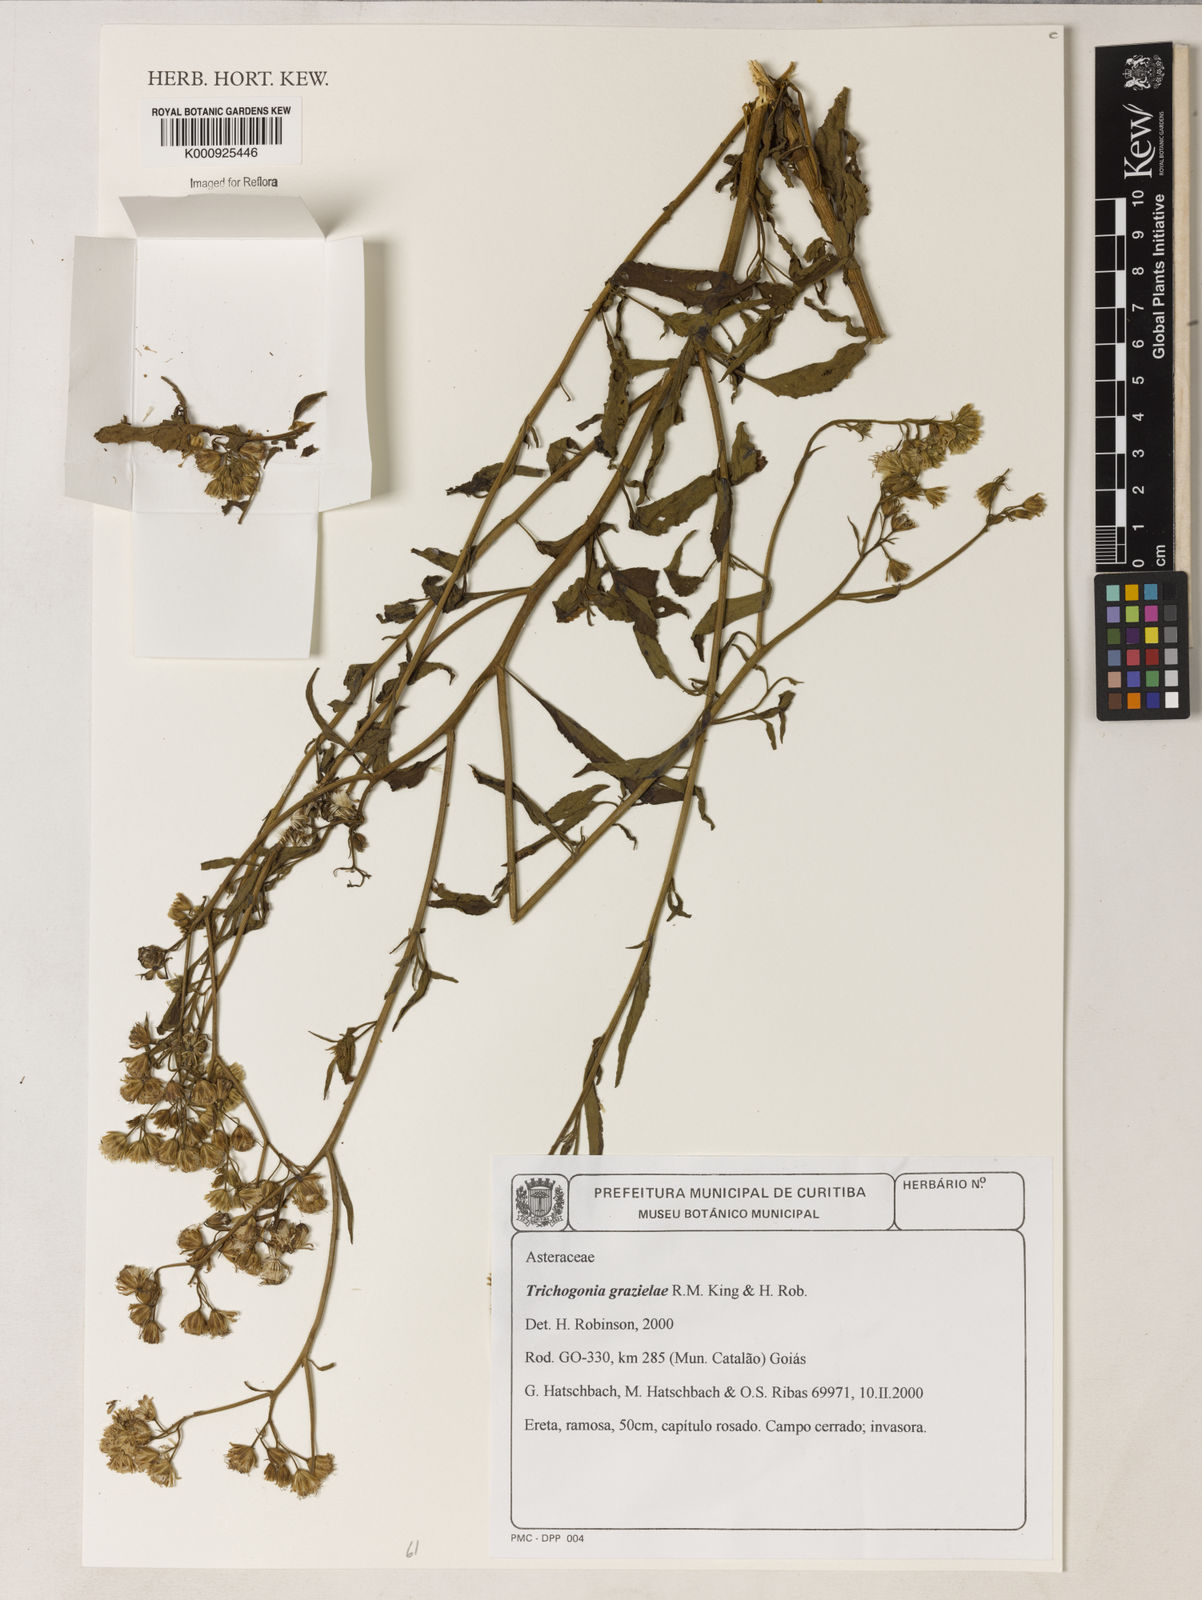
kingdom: Plantae
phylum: Tracheophyta
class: Magnoliopsida
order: Asterales
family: Asteraceae
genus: Trichogonia
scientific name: Trichogonia grazielae
